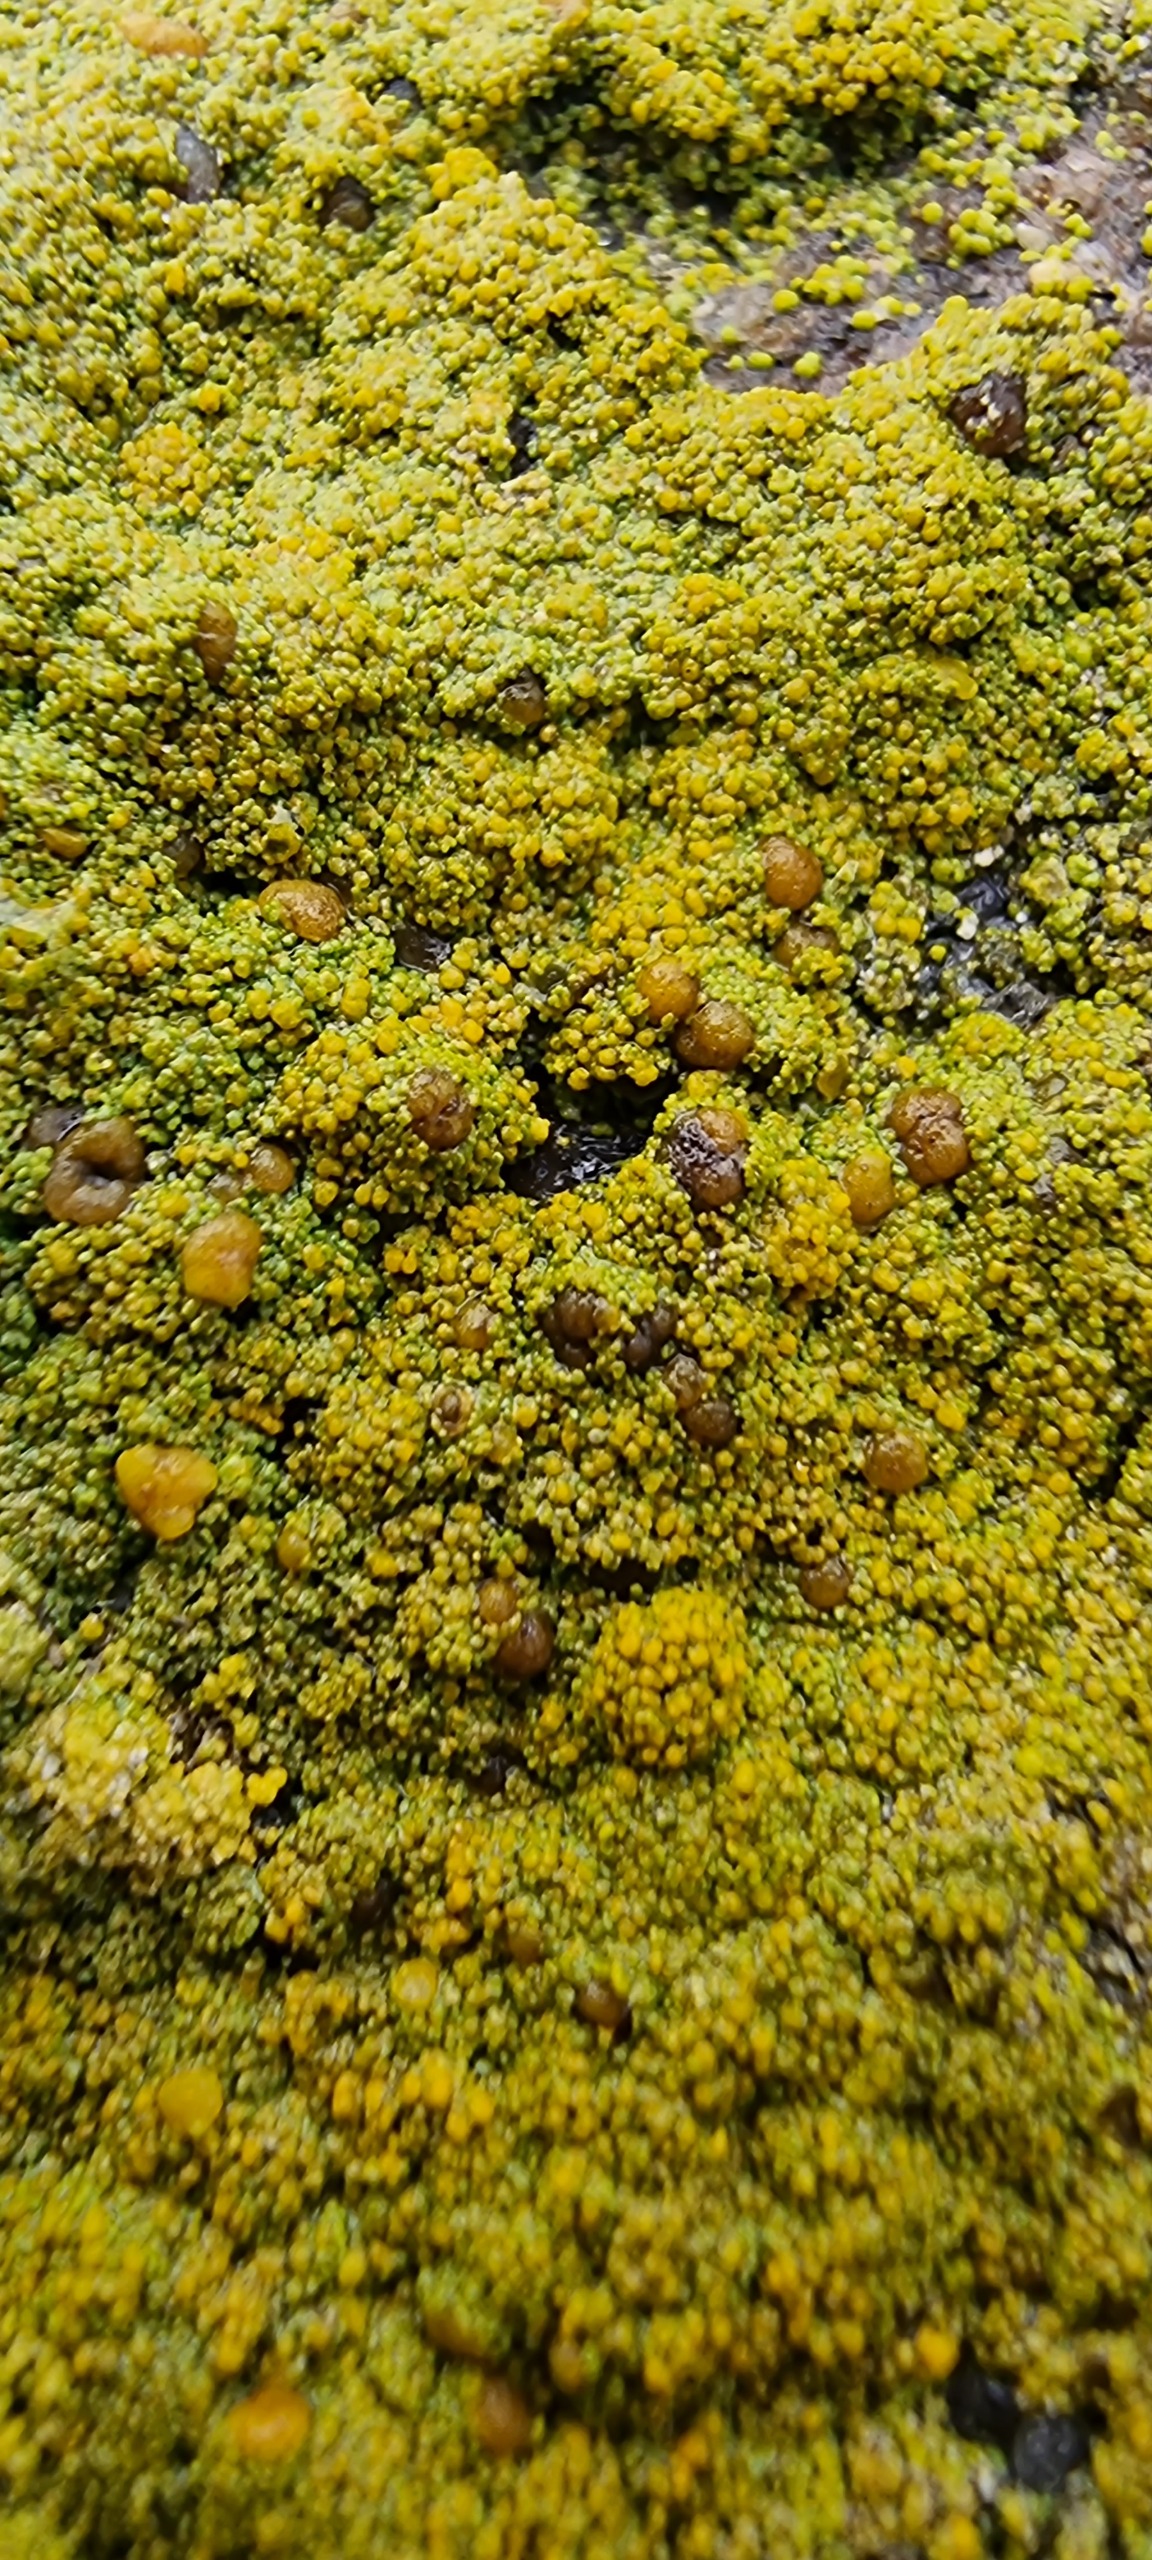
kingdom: Fungi
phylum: Ascomycota
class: Candelariomycetes
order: Candelariales
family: Candelariaceae
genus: Candelariella
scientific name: Candelariella vitellina
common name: Almindelig æggeblommelav
